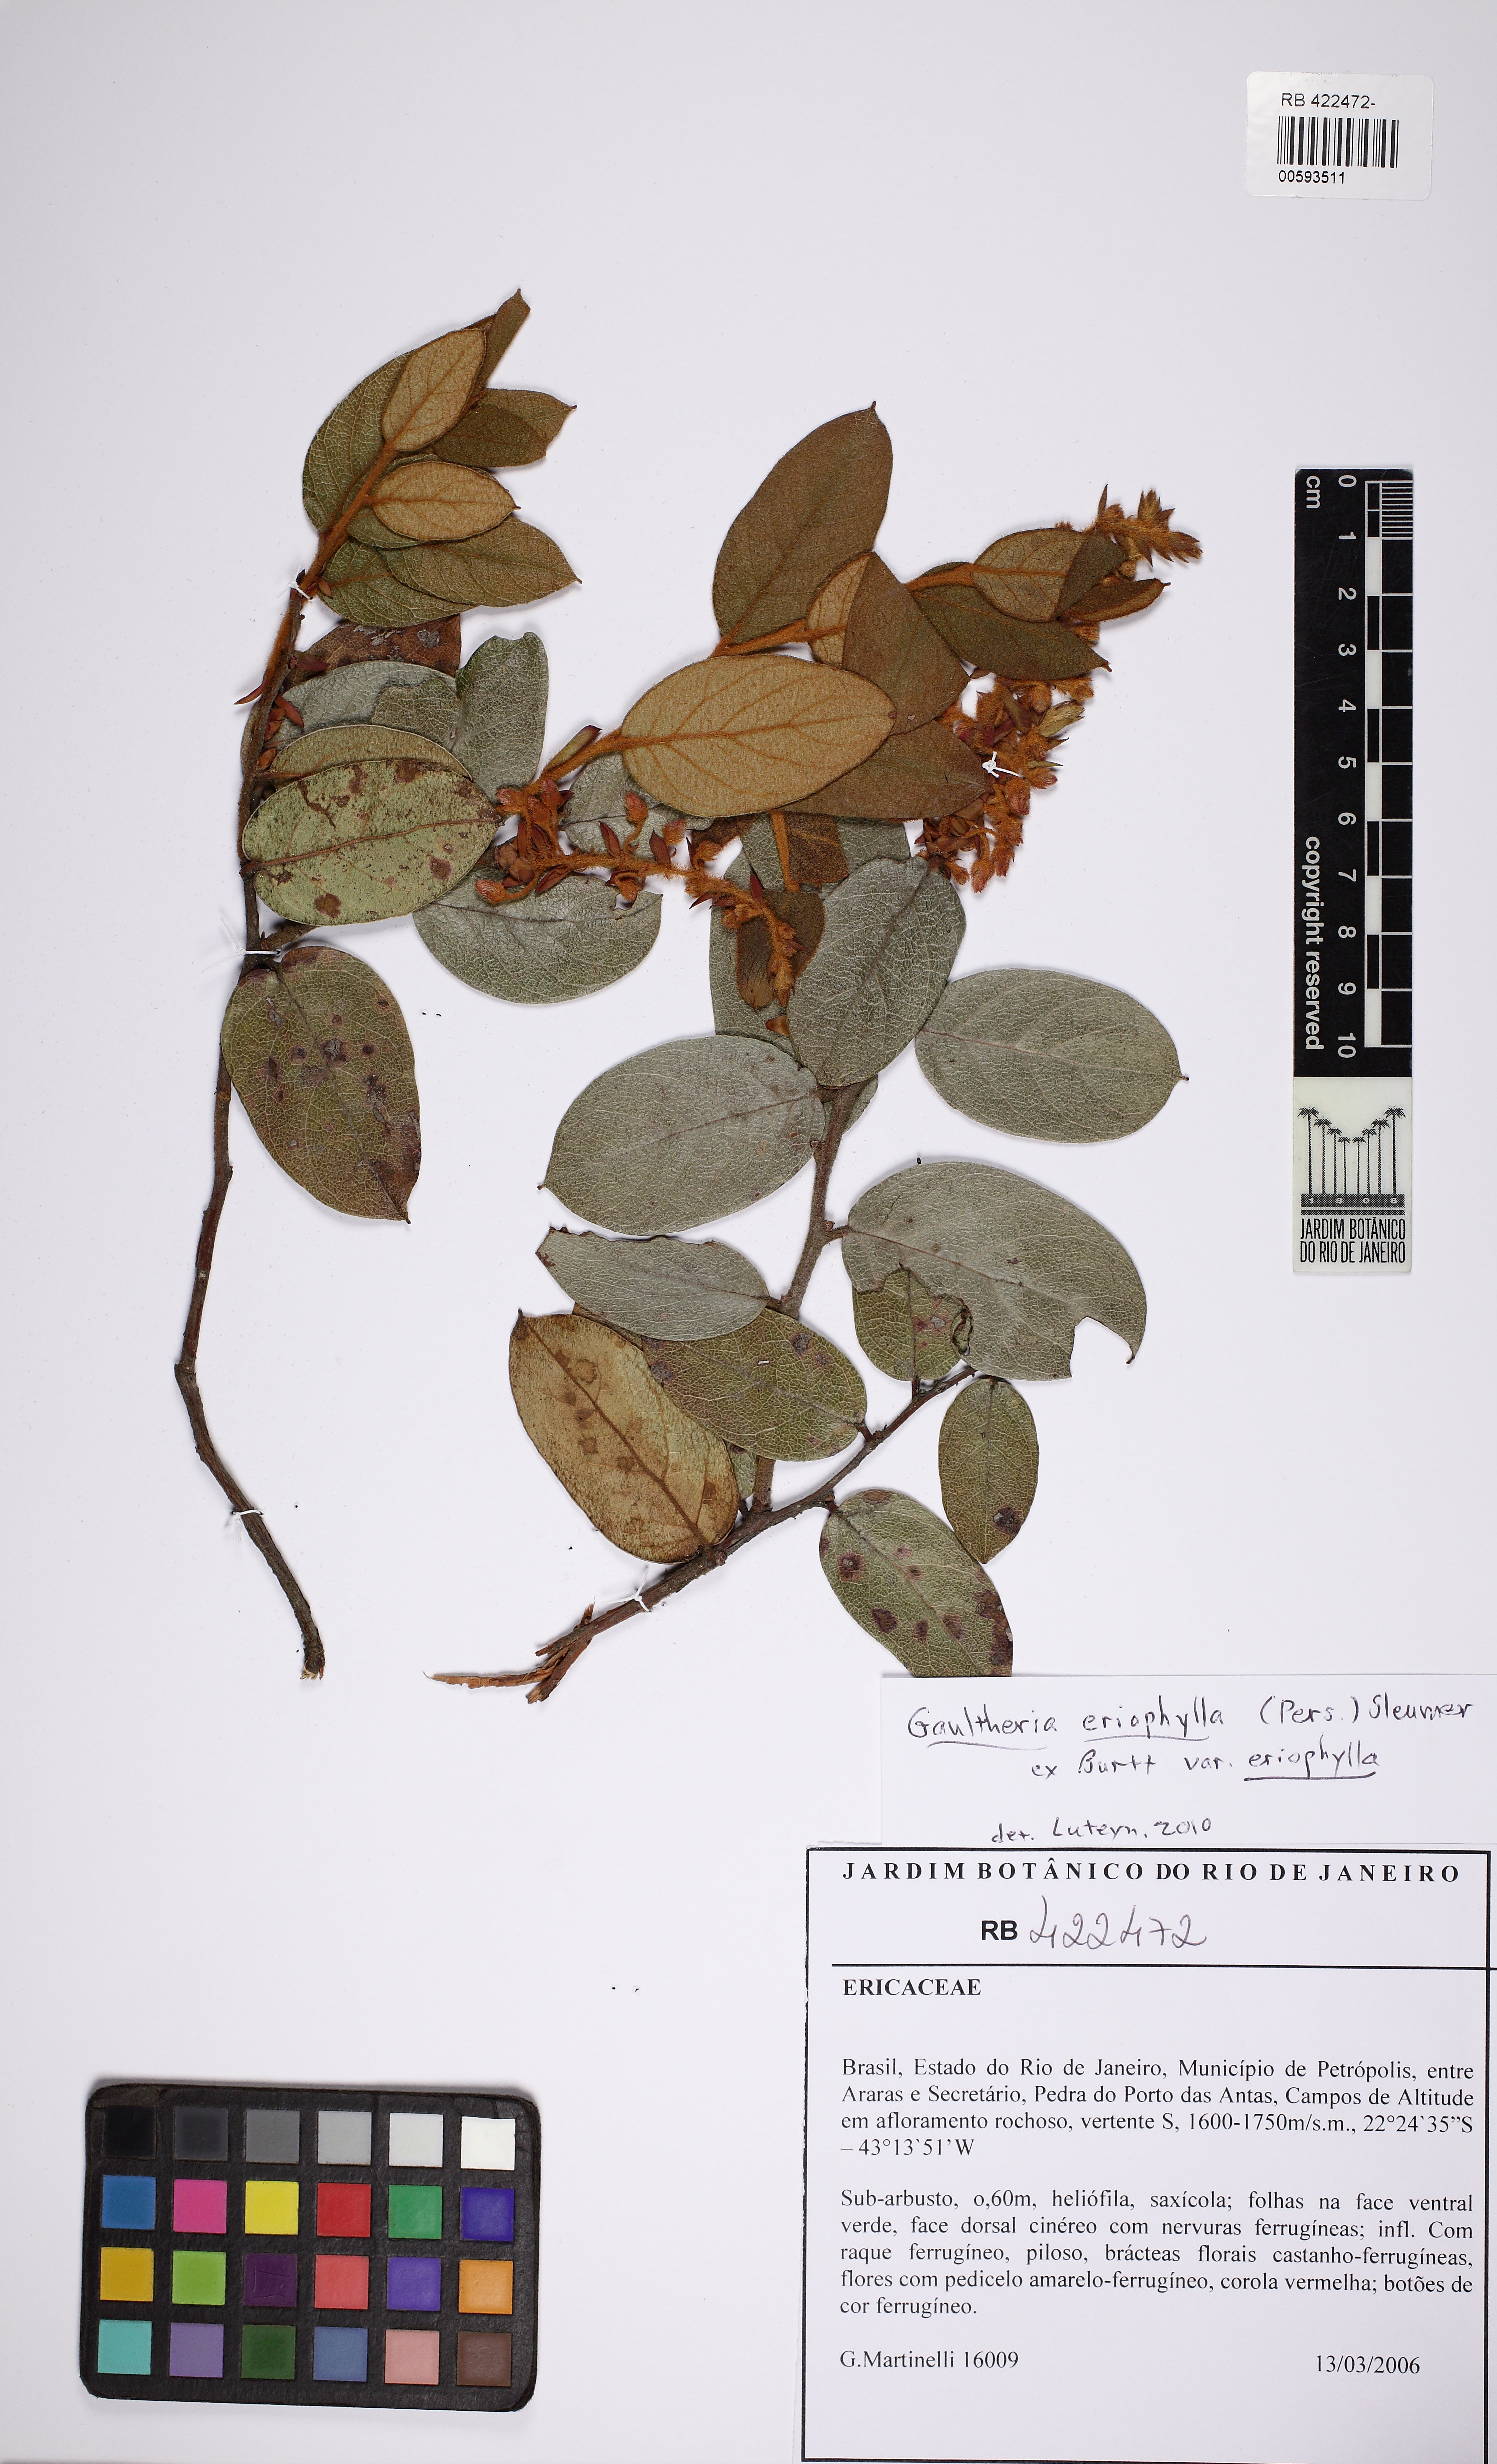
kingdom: Plantae
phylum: Tracheophyta
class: Magnoliopsida
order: Ericales
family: Ericaceae
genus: Gaultheria
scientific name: Gaultheria eriophylla
